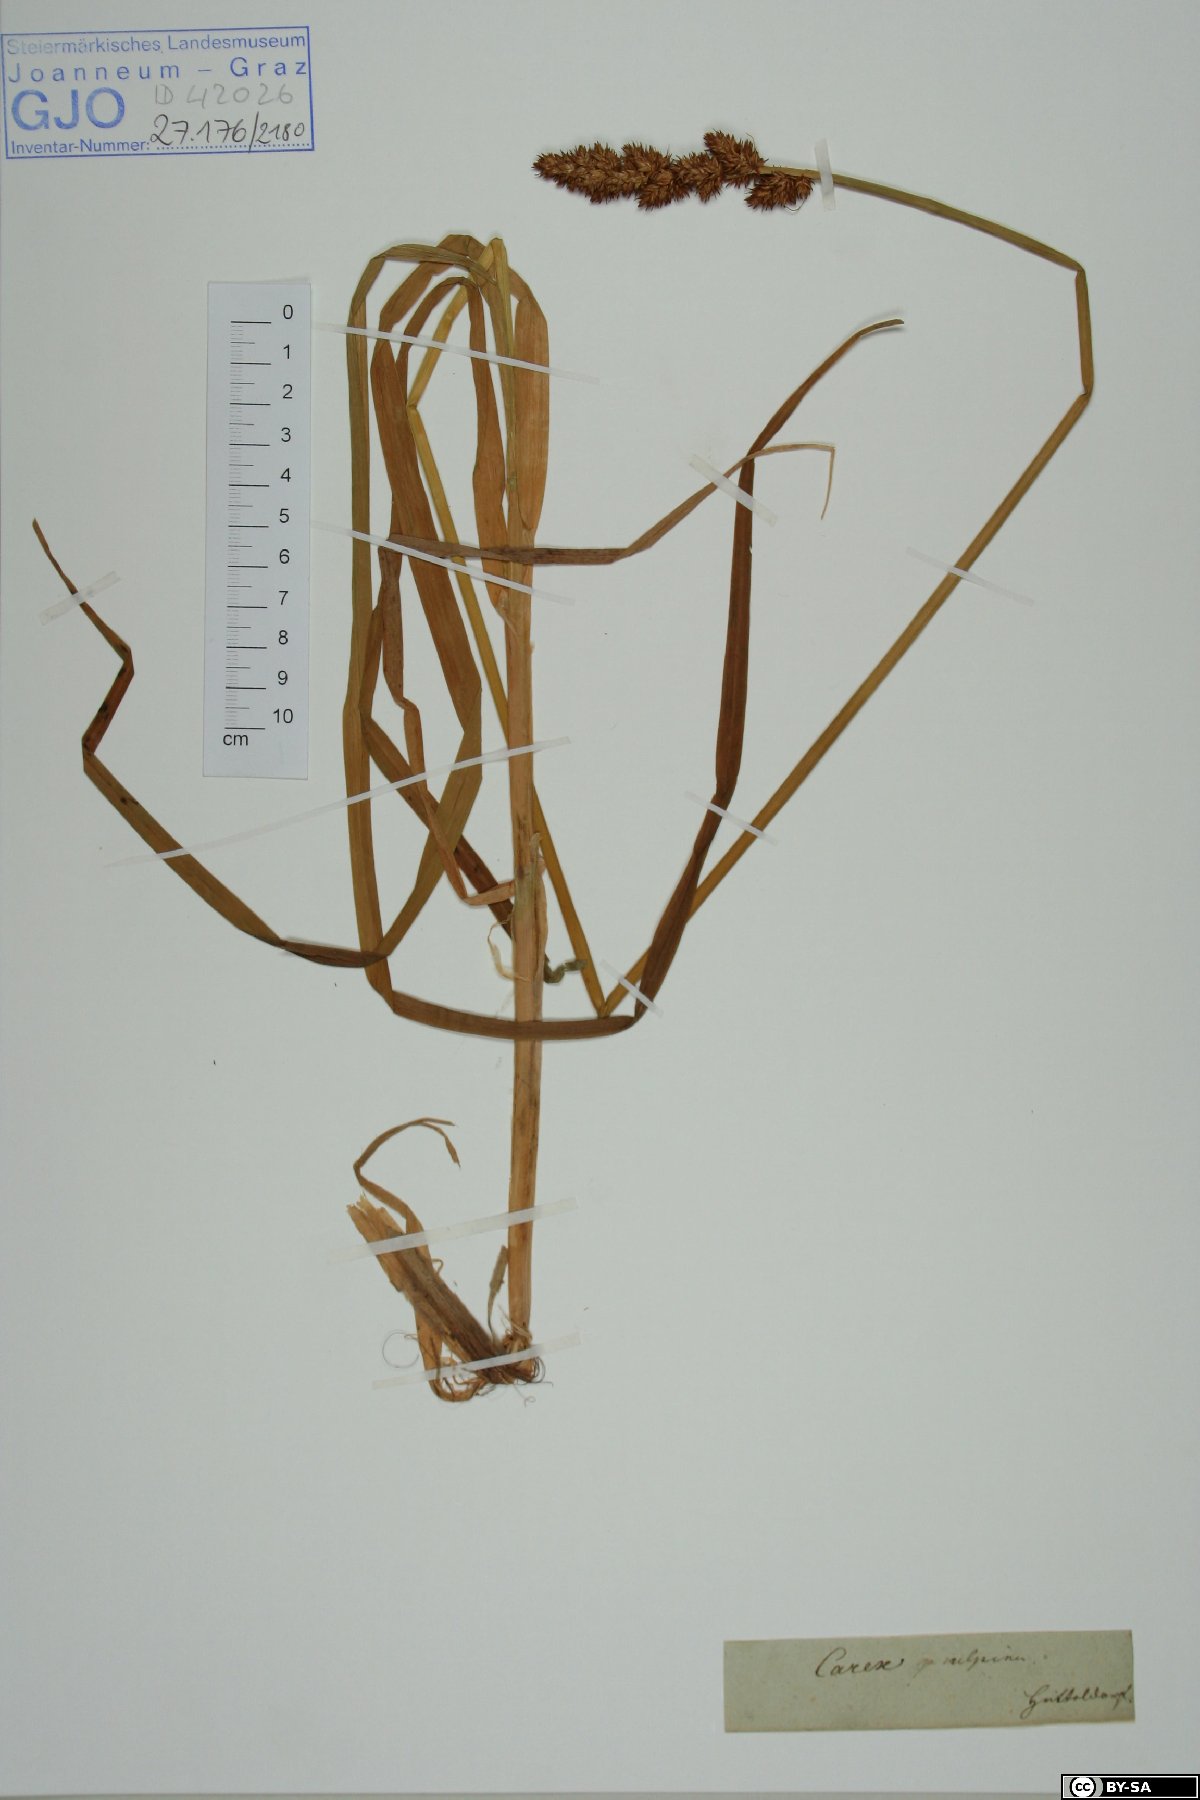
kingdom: Plantae
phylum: Tracheophyta
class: Liliopsida
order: Poales
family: Cyperaceae
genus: Carex
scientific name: Carex vulpina
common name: True fox-sedge
